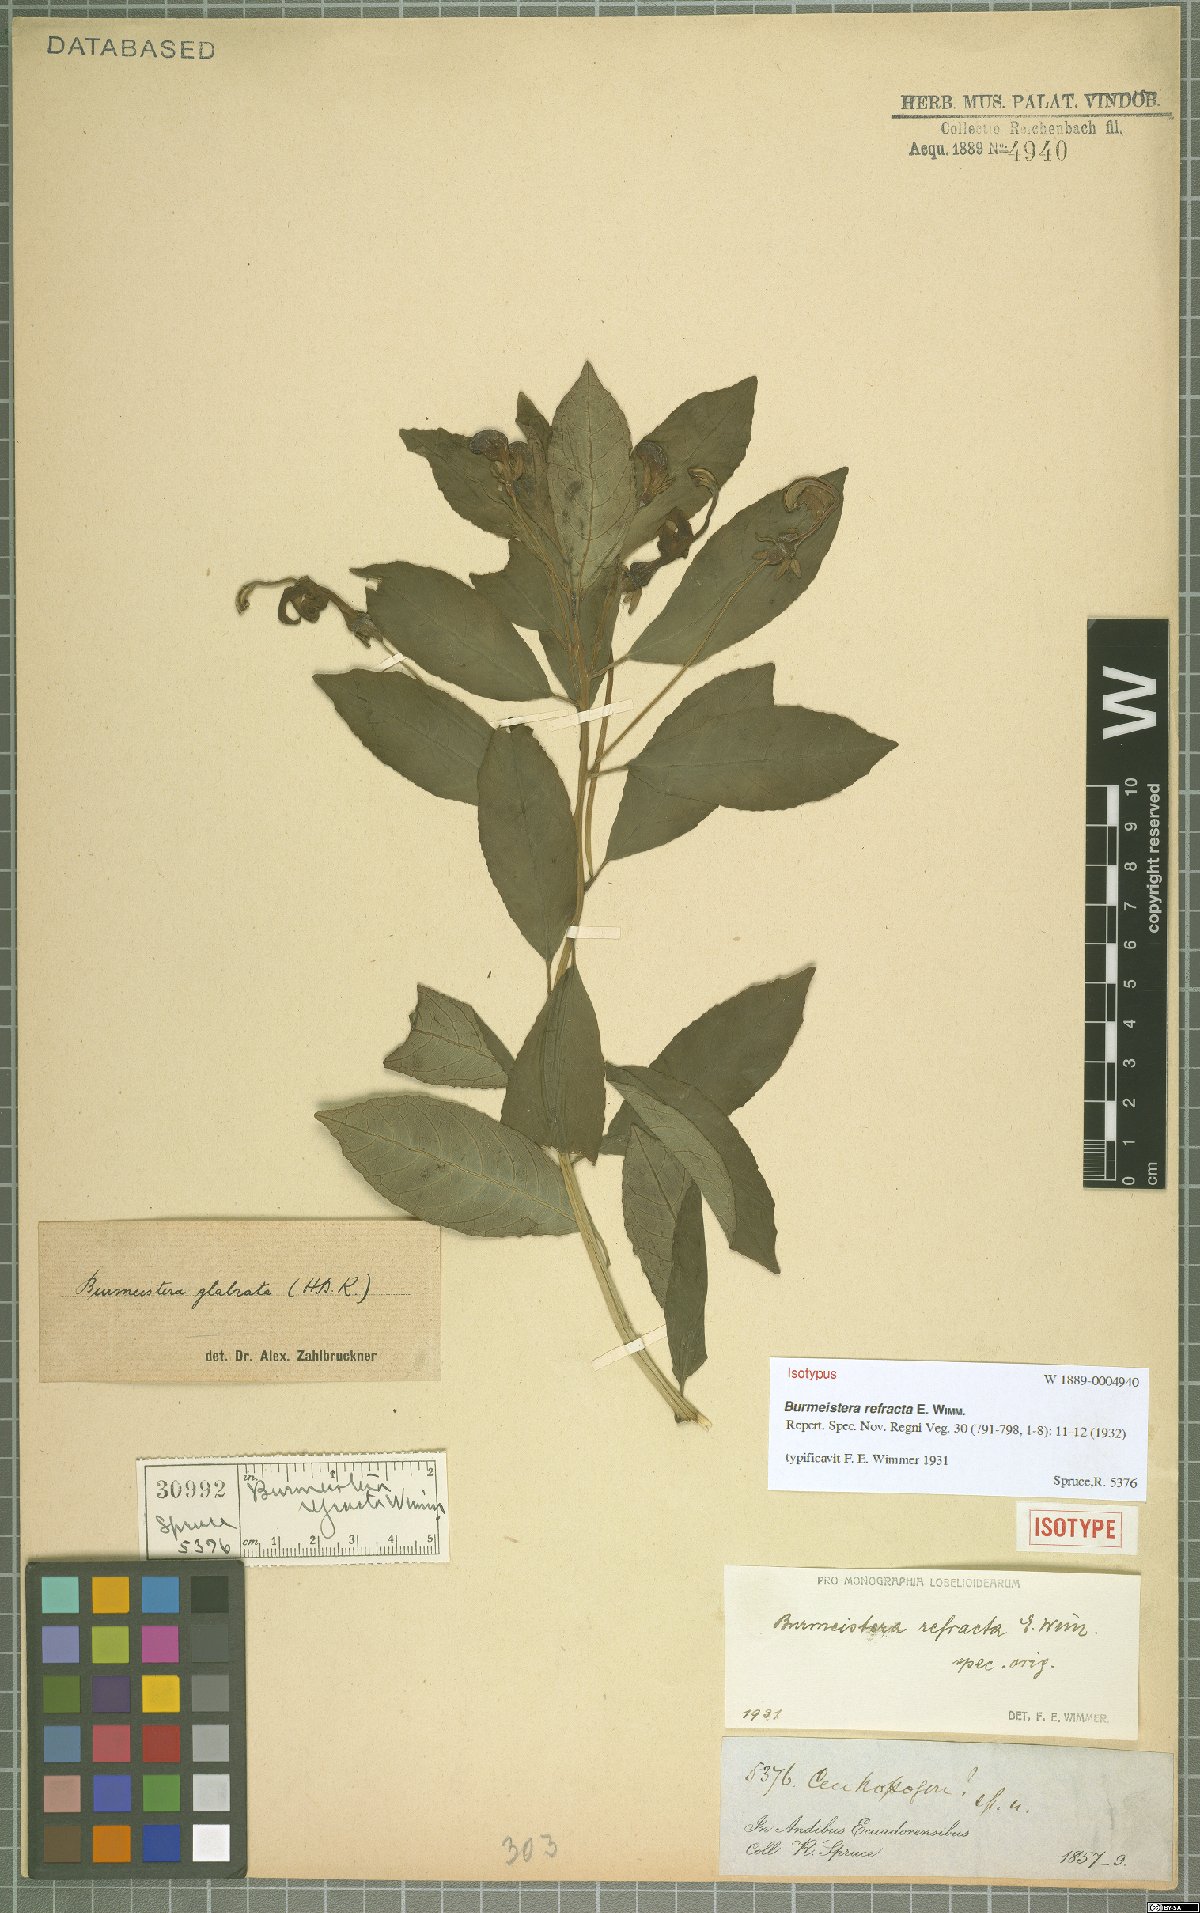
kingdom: Plantae
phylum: Tracheophyta
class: Magnoliopsida
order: Asterales
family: Campanulaceae
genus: Burmeistera
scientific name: Burmeistera refracta
